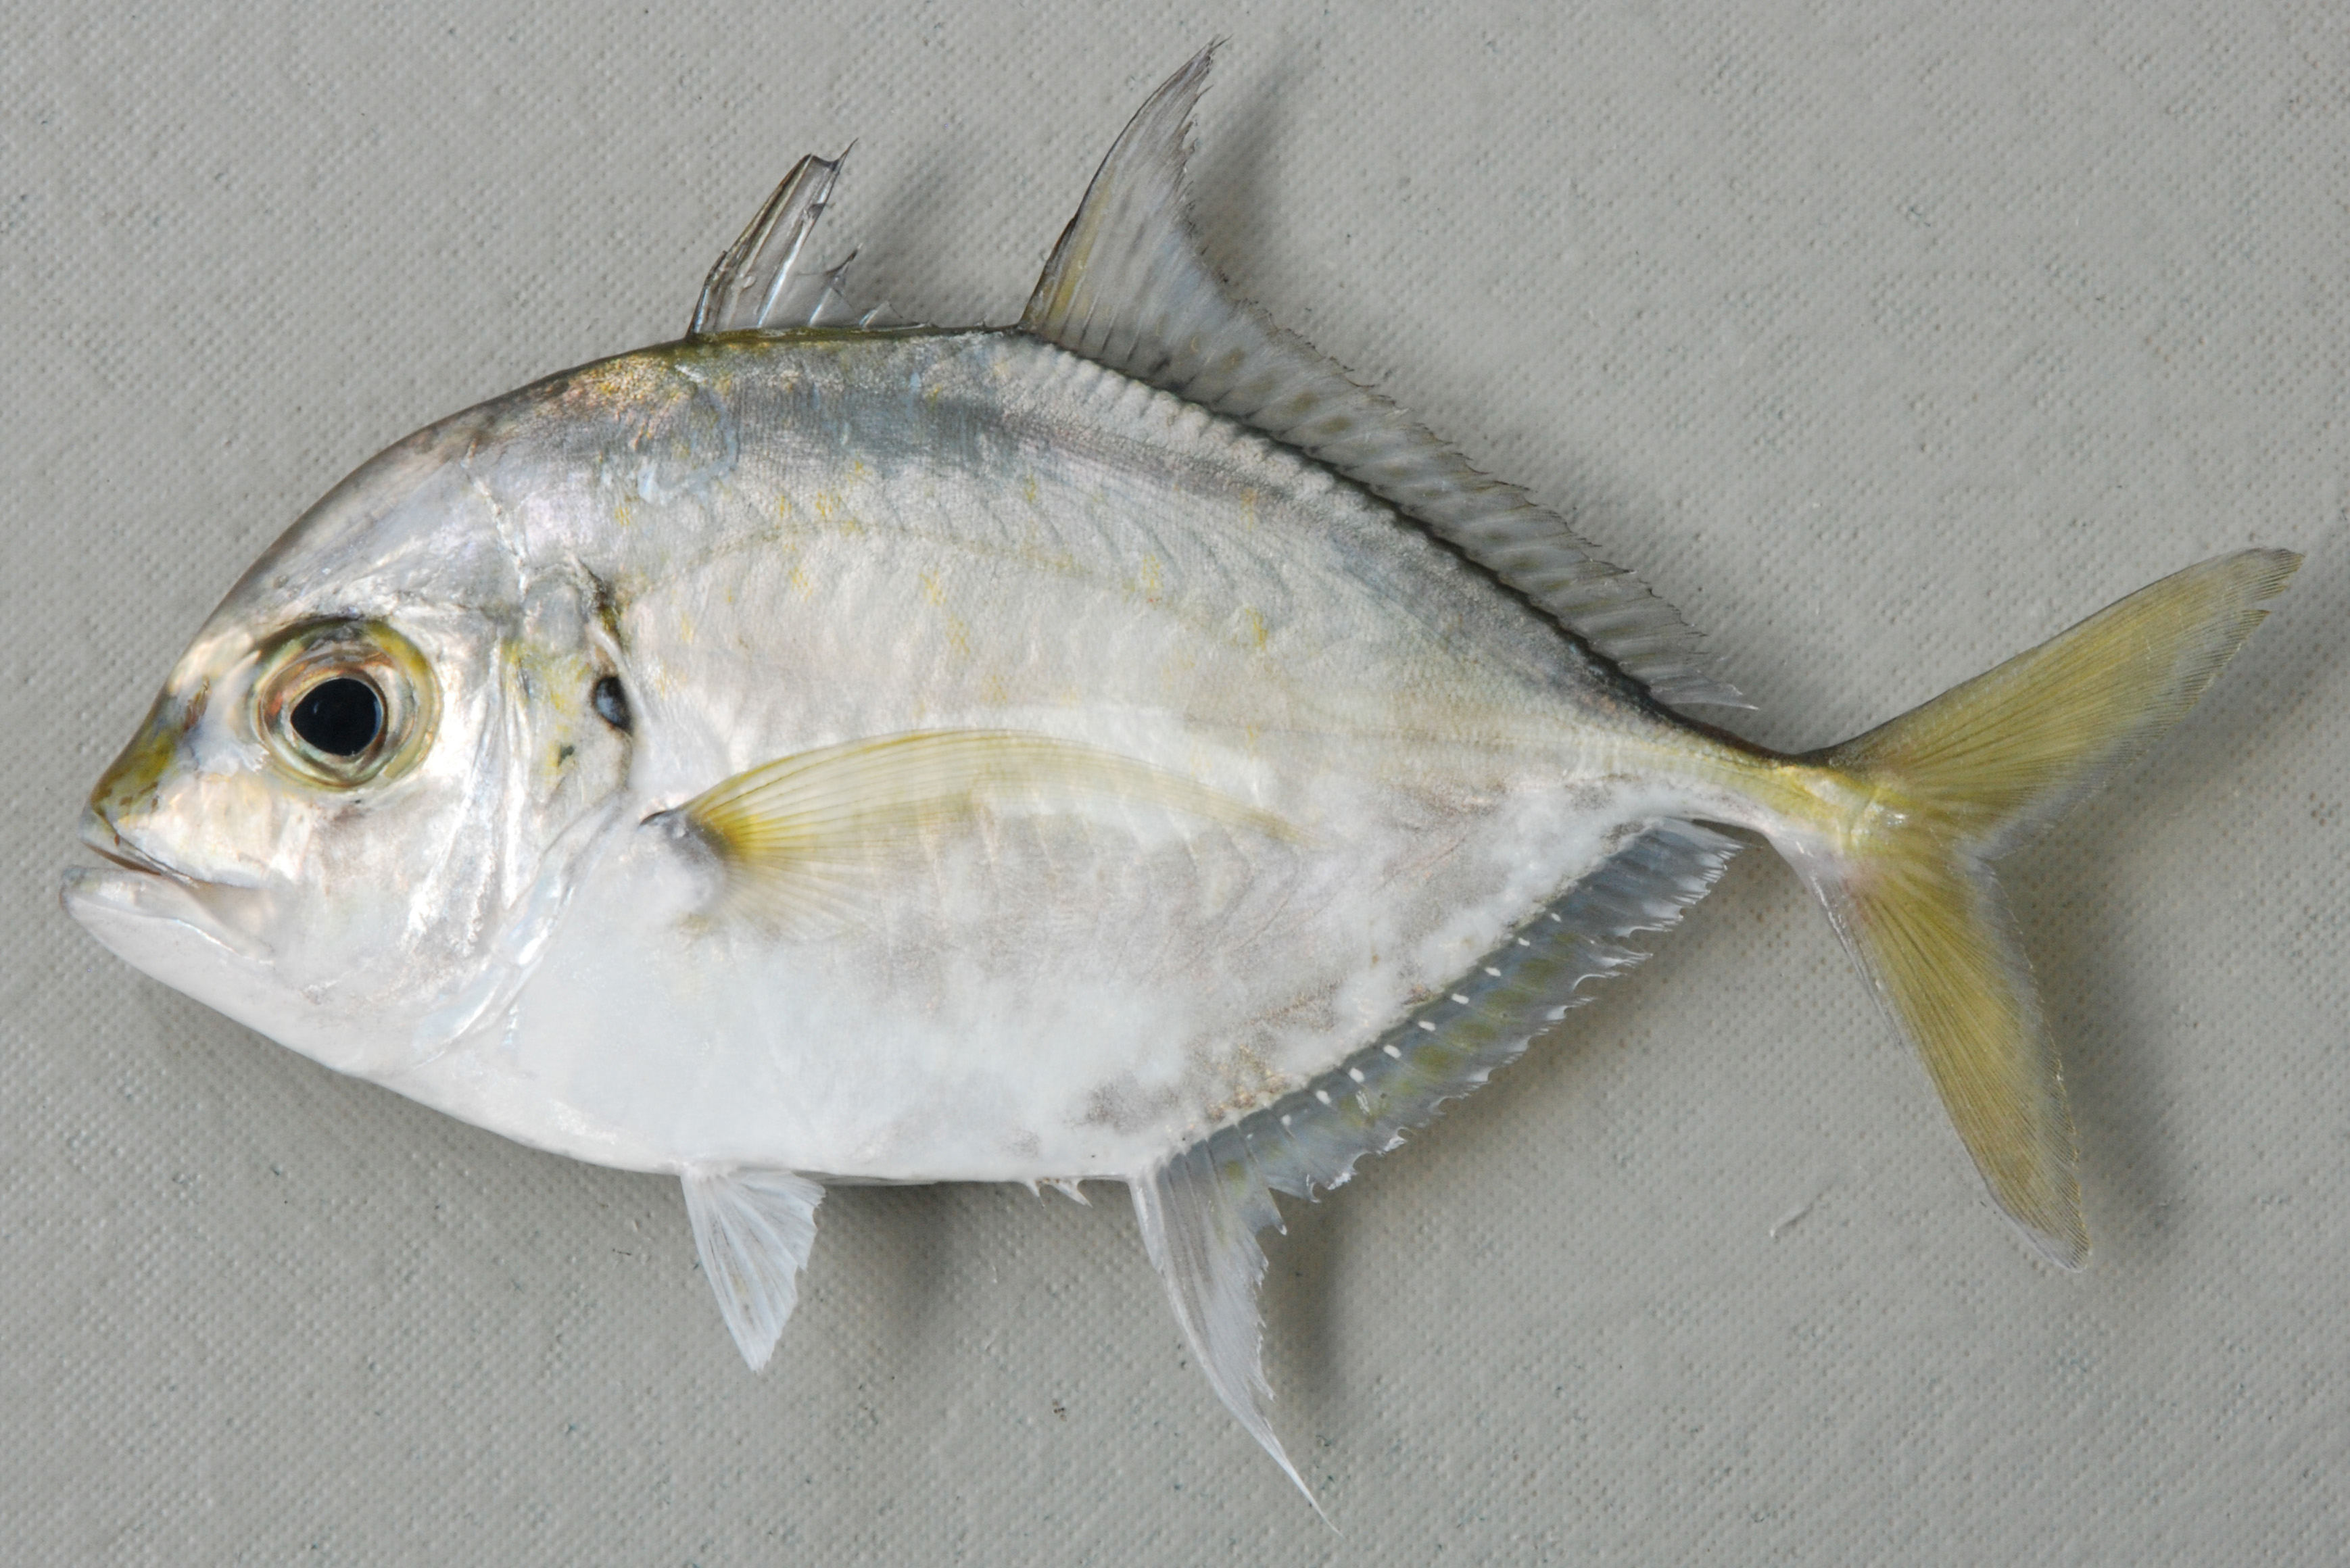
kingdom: Animalia
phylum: Chordata
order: Perciformes
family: Carangidae
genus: Carangoides
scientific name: Carangoides coeruleopinnatus
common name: Coastal trevally
